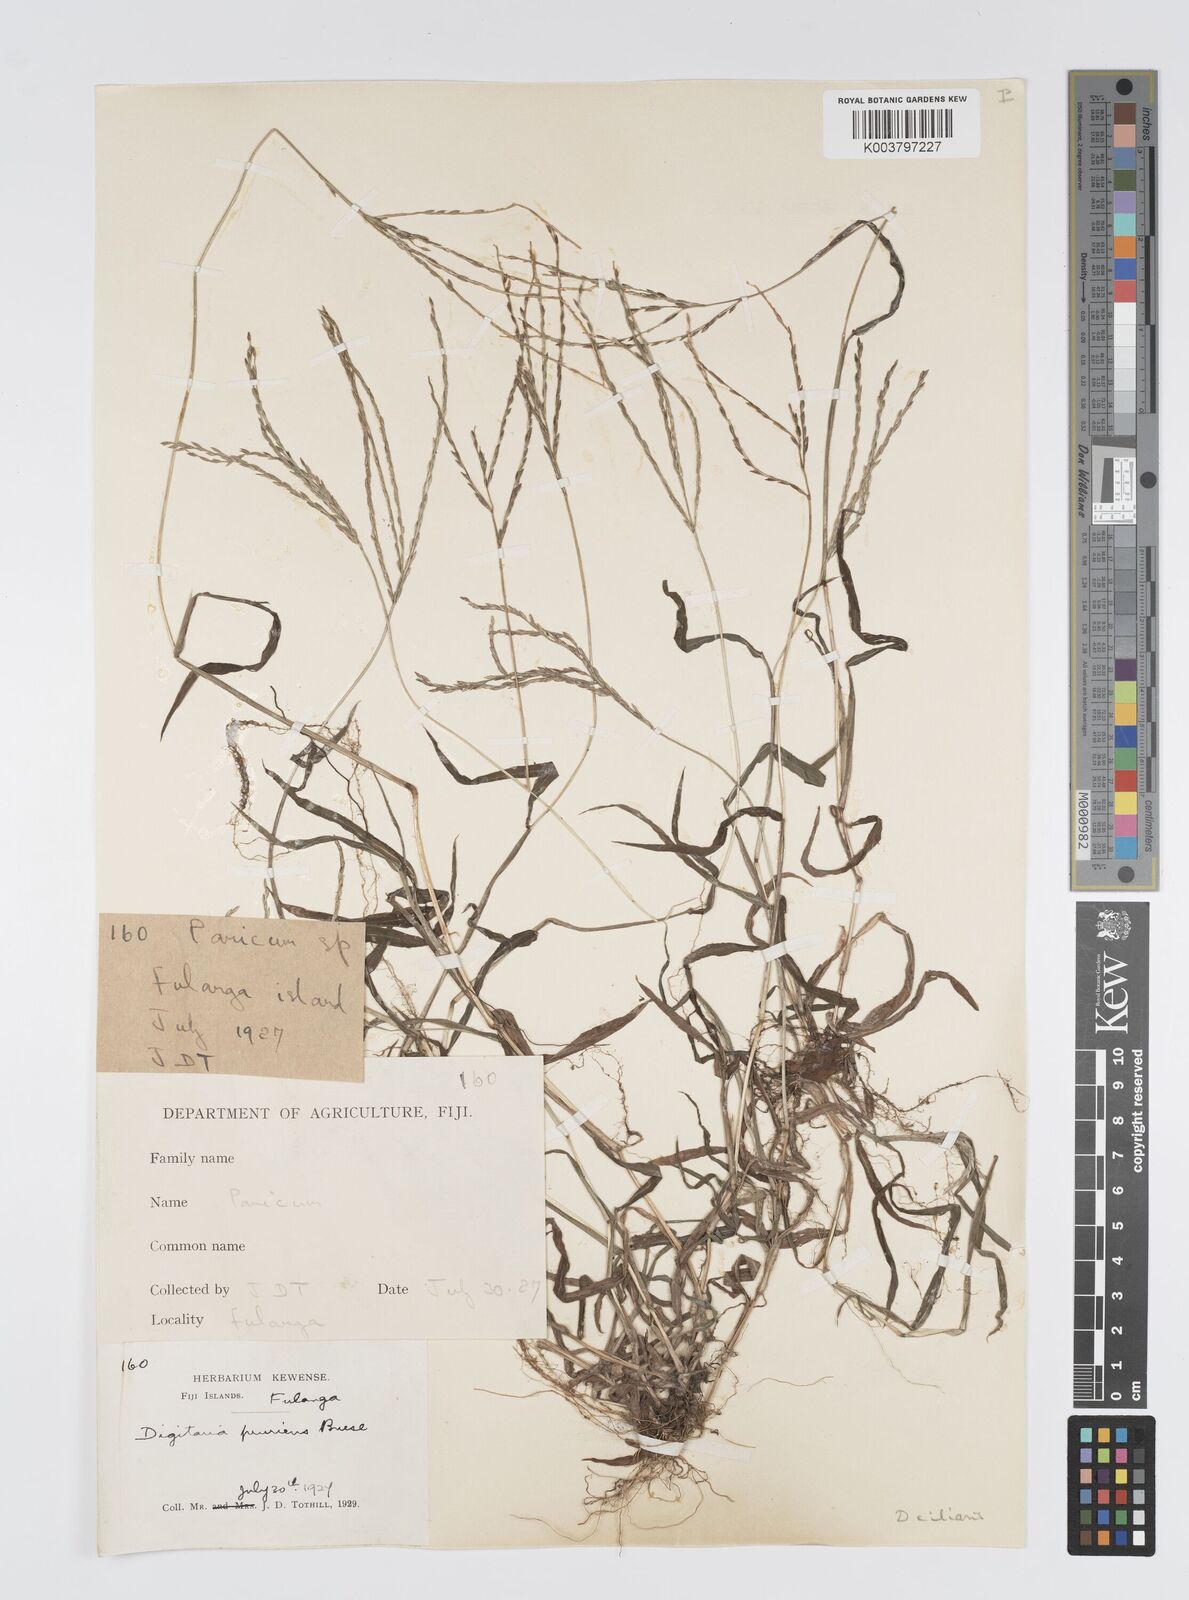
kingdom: Plantae
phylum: Tracheophyta
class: Liliopsida
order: Poales
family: Poaceae
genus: Digitaria
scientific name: Digitaria ciliaris
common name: Tropical finger-grass
